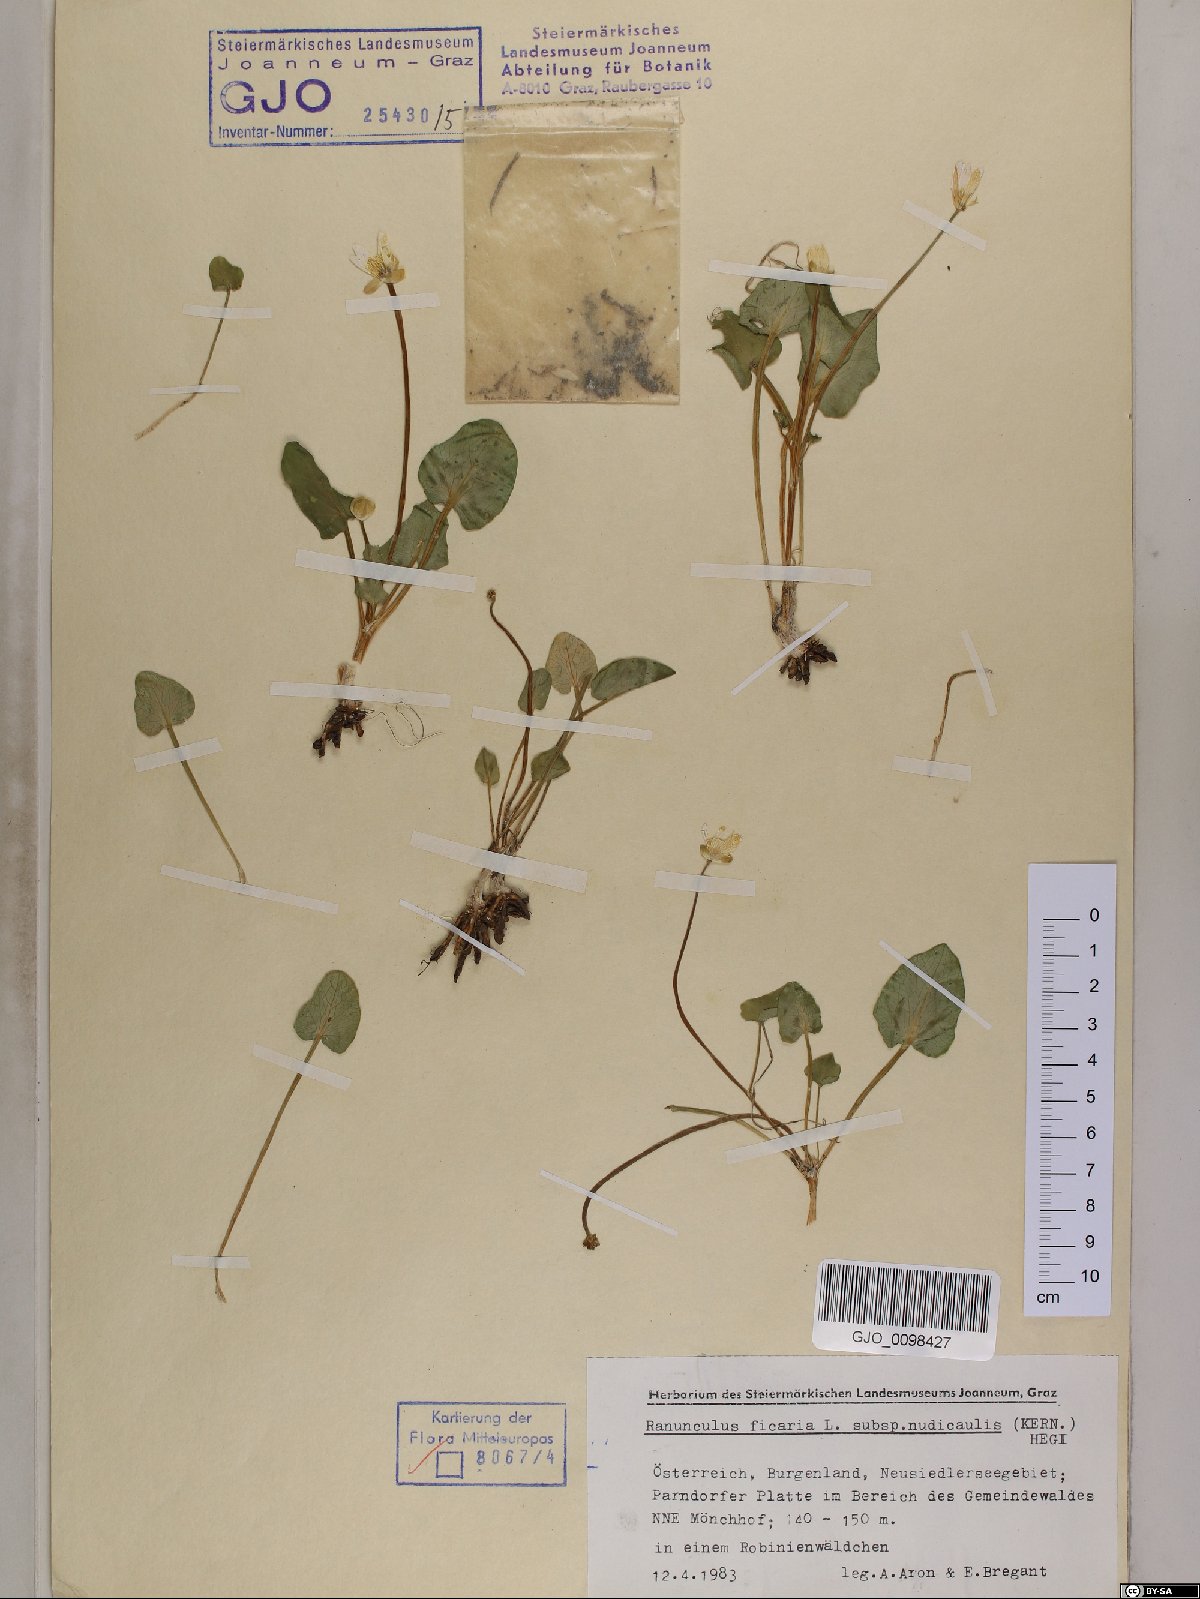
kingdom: Plantae
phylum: Tracheophyta
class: Magnoliopsida
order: Ranunculales
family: Ranunculaceae
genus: Ficaria
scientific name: Ficaria calthifolia
